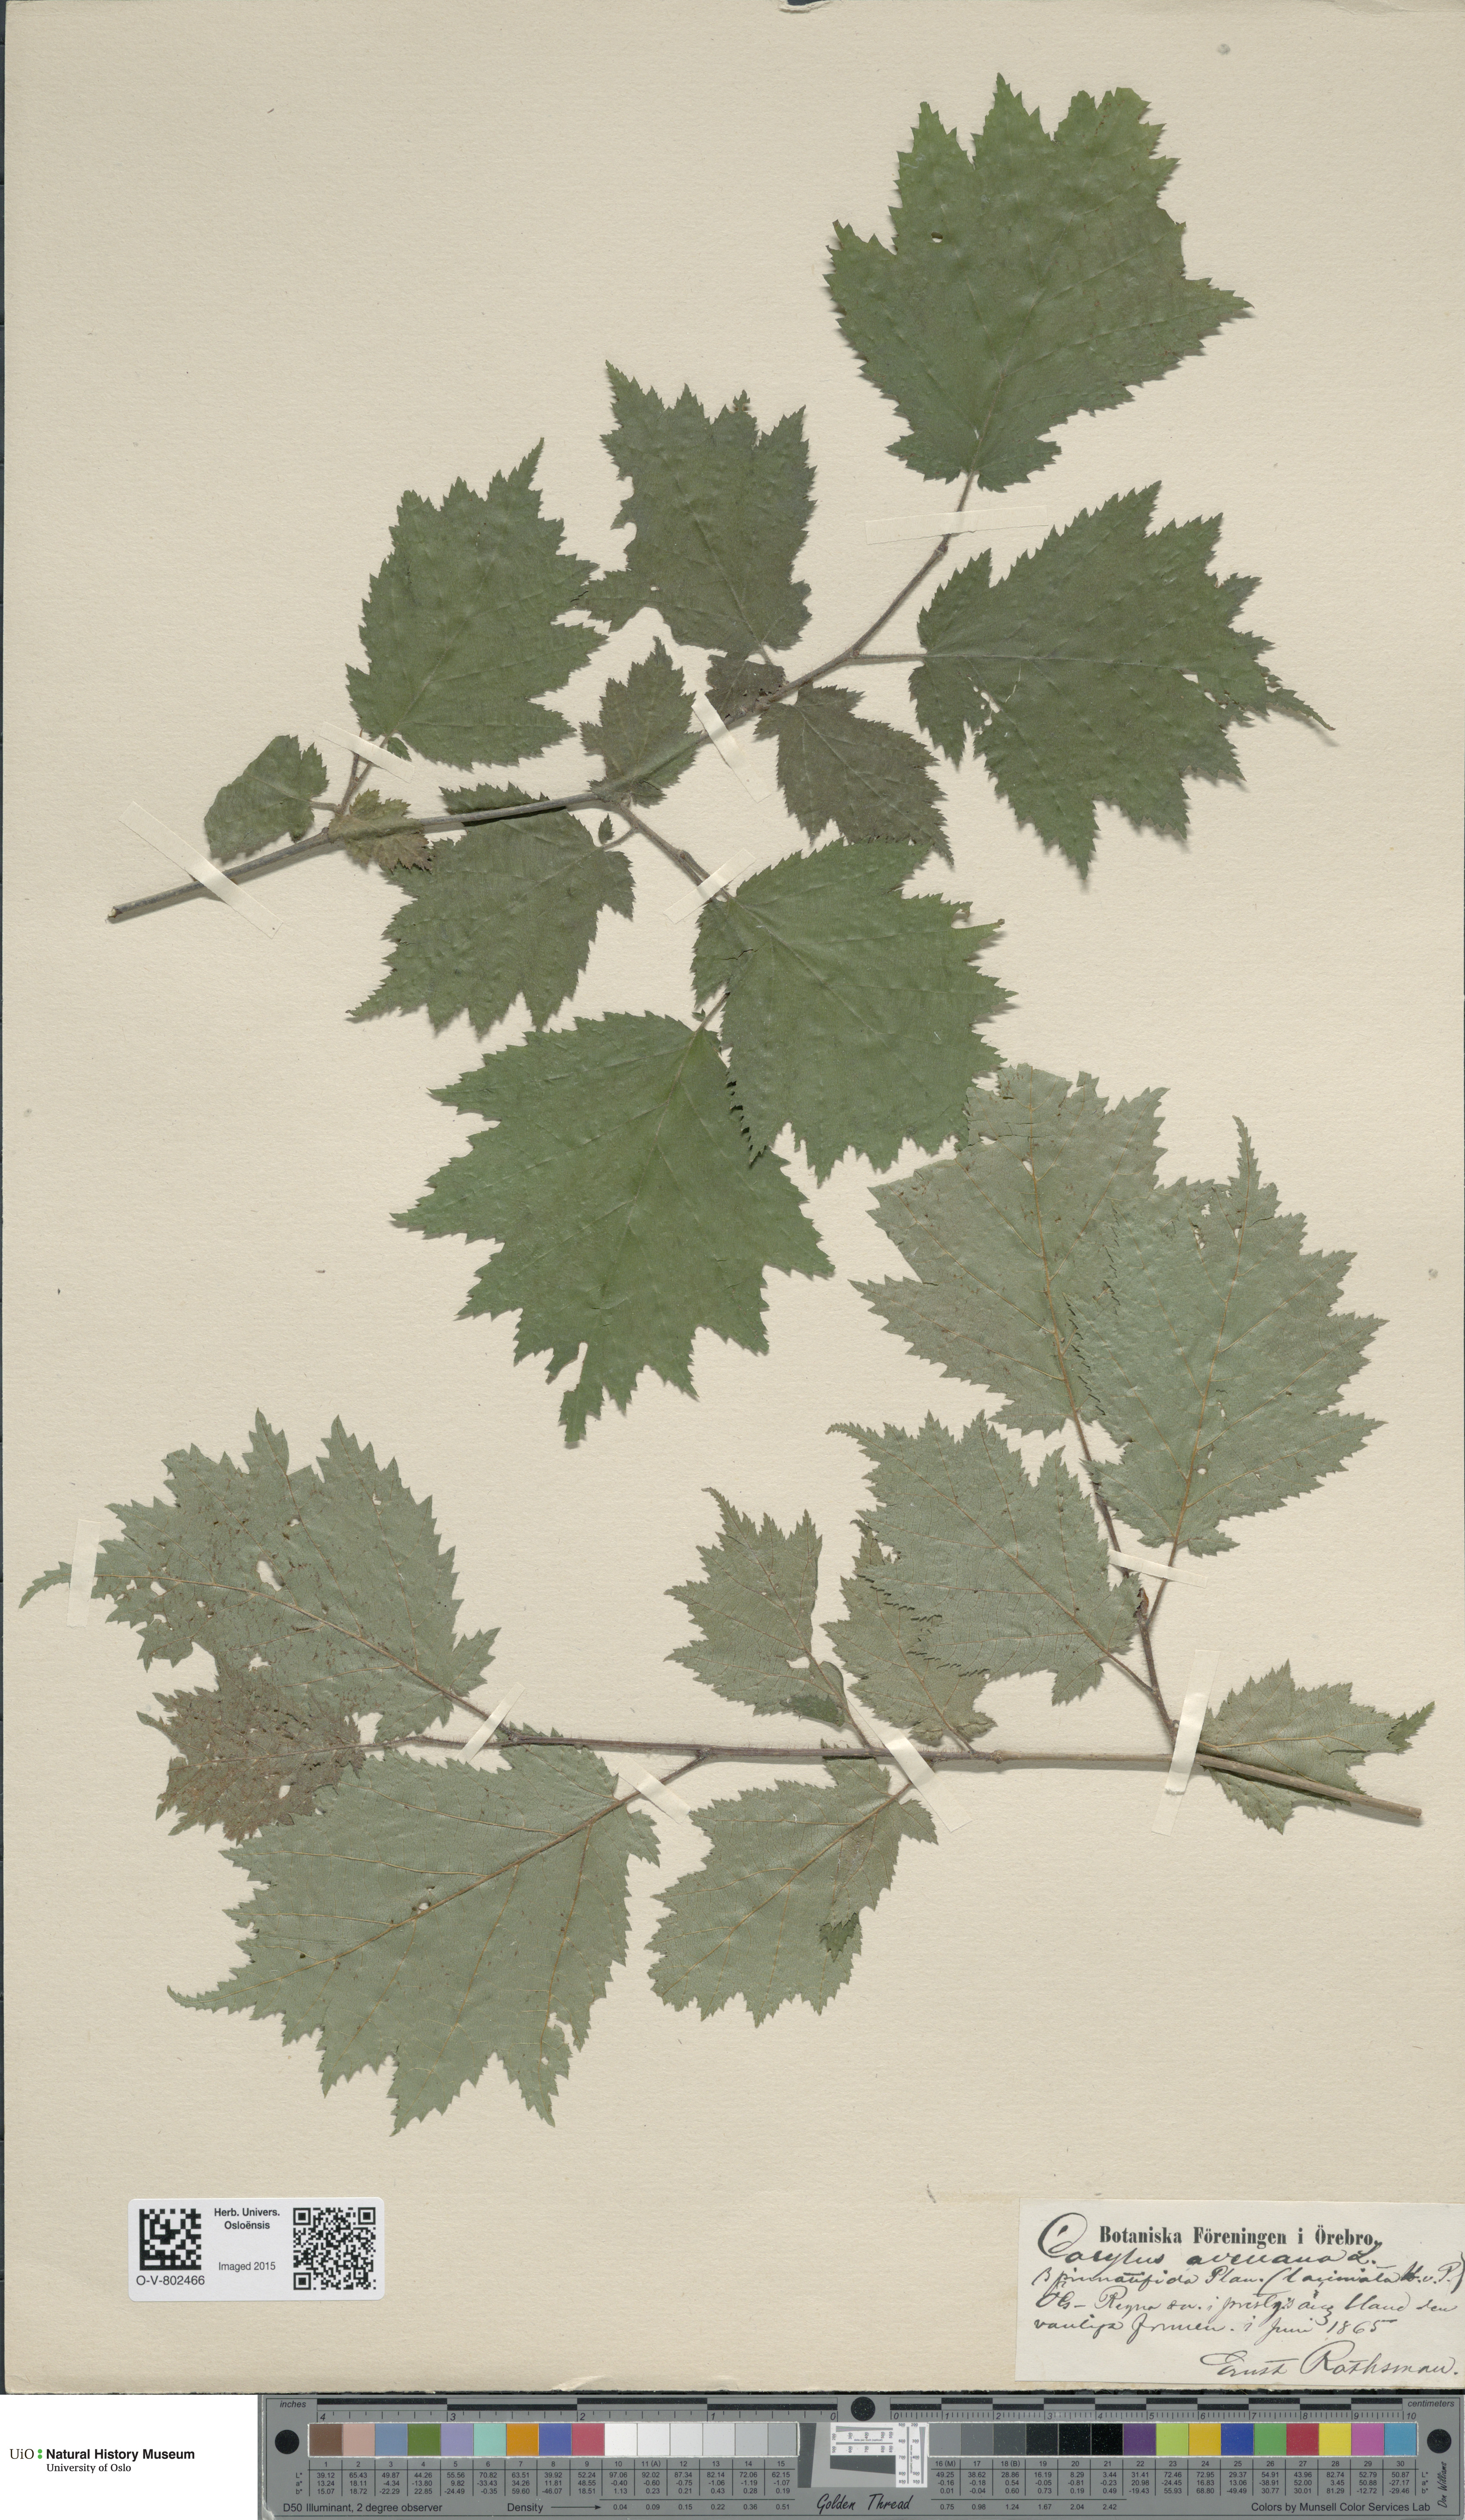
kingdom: Plantae
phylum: Tracheophyta
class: Magnoliopsida
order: Fagales
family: Betulaceae
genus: Corylus
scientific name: Corylus avellana
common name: European hazel
